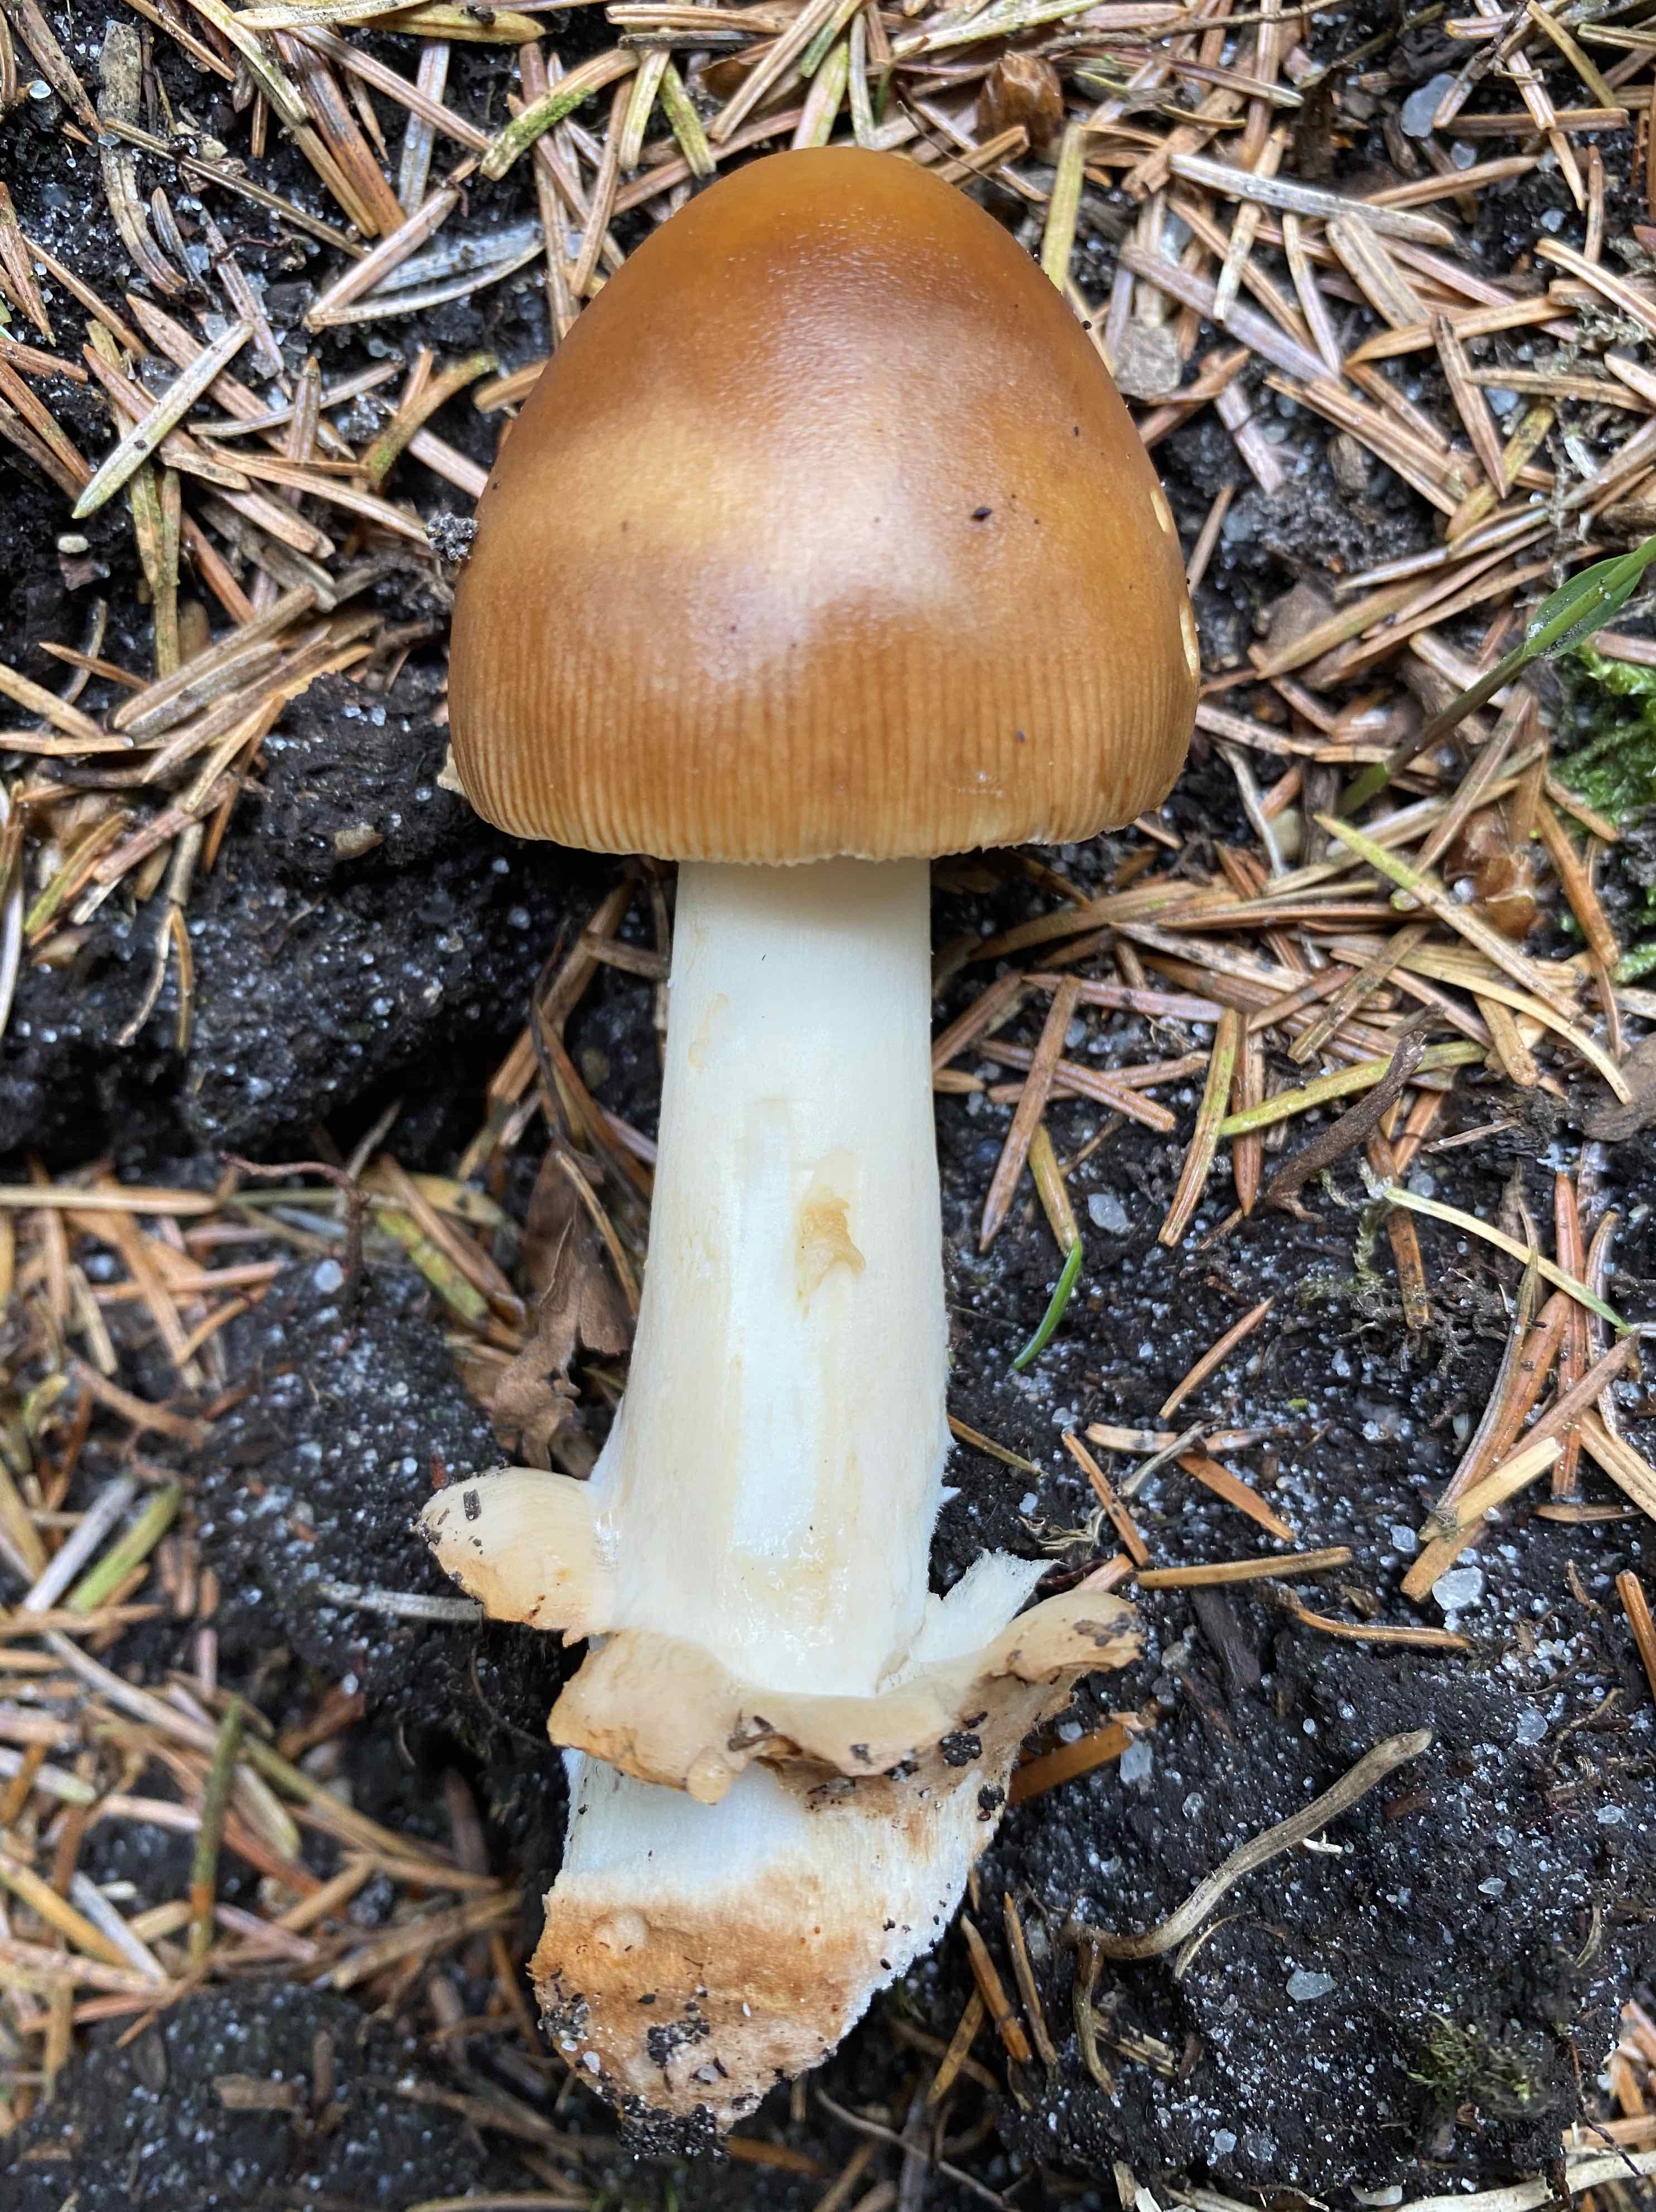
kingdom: Fungi
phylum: Basidiomycota
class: Agaricomycetes
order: Agaricales
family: Amanitaceae
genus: Amanita
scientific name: Amanita fulva
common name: brun kam-fluesvamp
